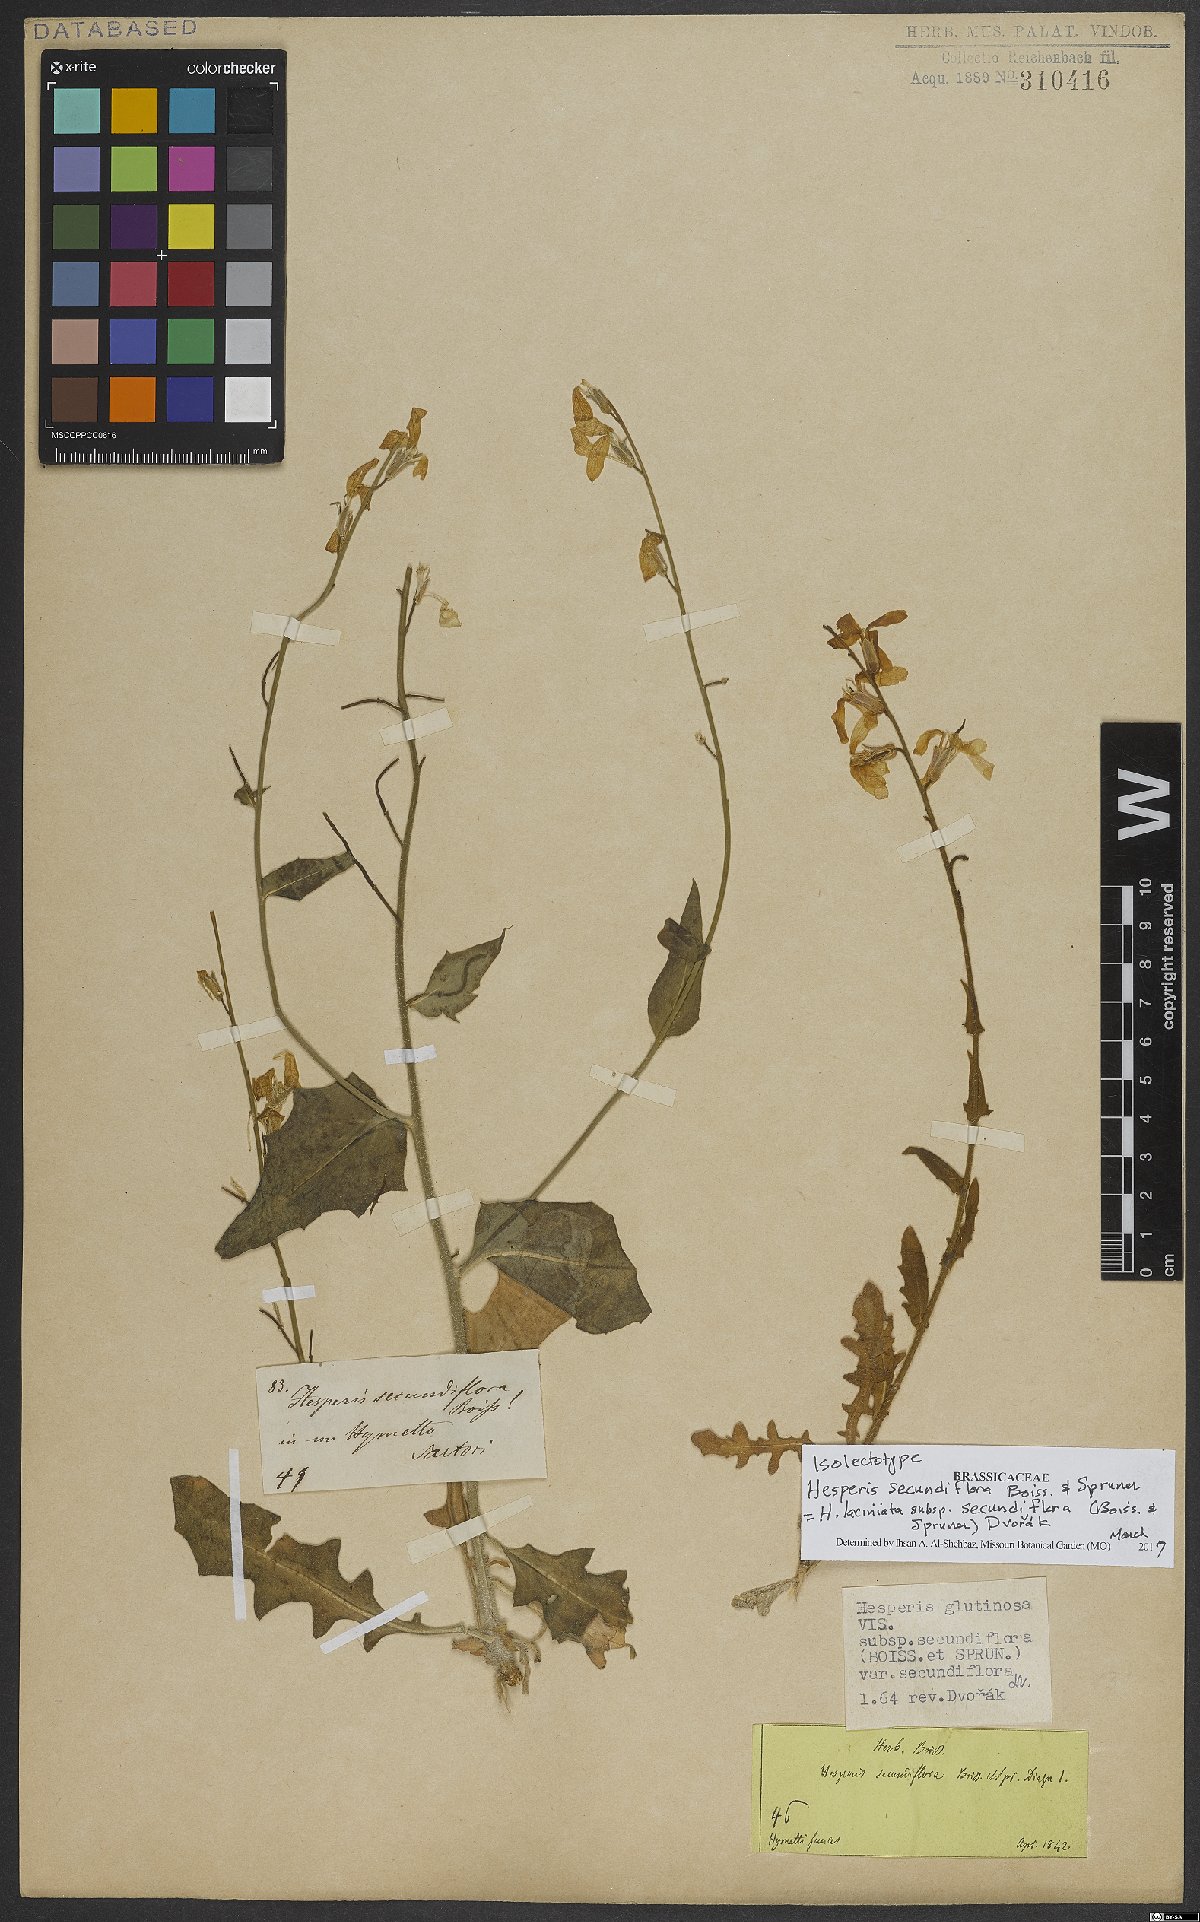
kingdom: Plantae
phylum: Tracheophyta
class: Magnoliopsida
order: Brassicales
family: Brassicaceae
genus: Hesperis
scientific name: Hesperis laciniata
